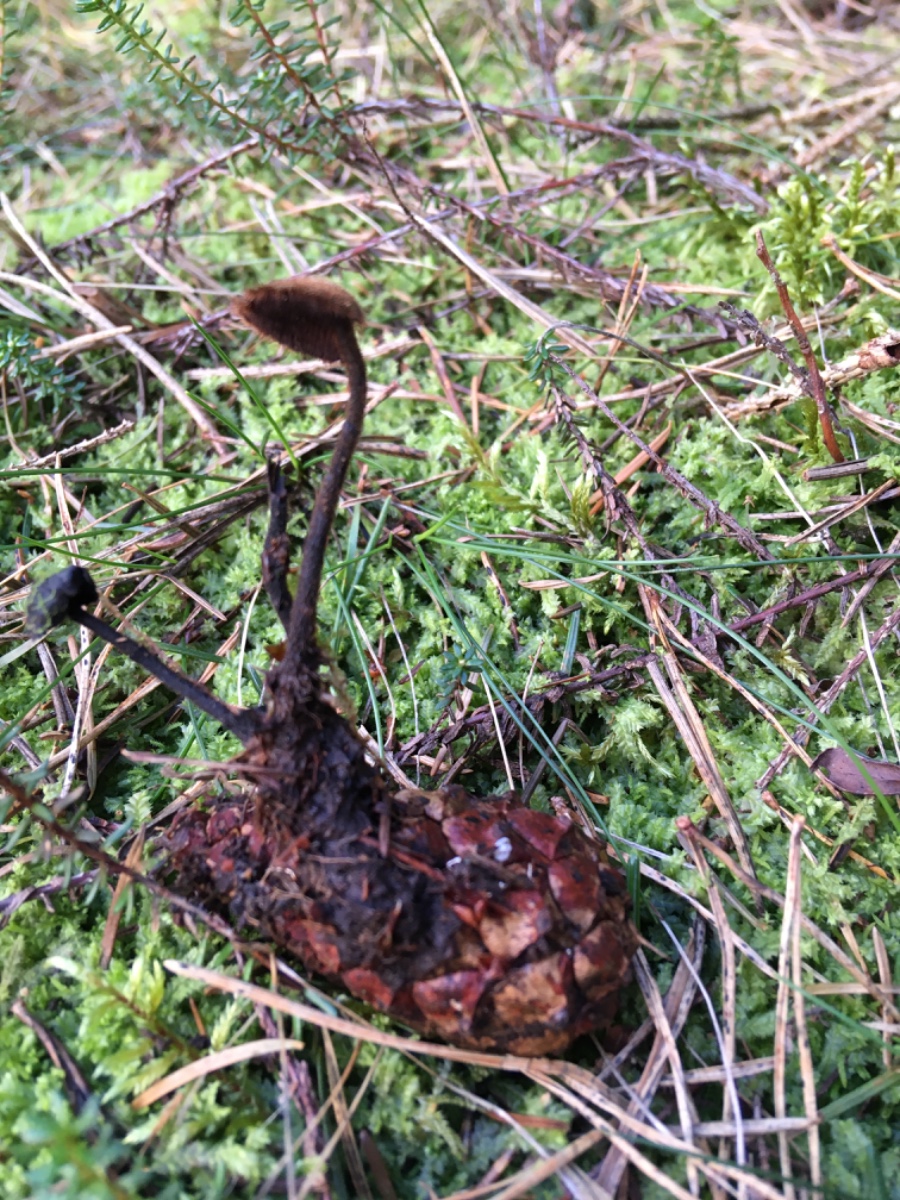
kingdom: Fungi
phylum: Basidiomycota
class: Agaricomycetes
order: Russulales
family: Auriscalpiaceae
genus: Auriscalpium
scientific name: Auriscalpium vulgare
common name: koglepigsvamp
